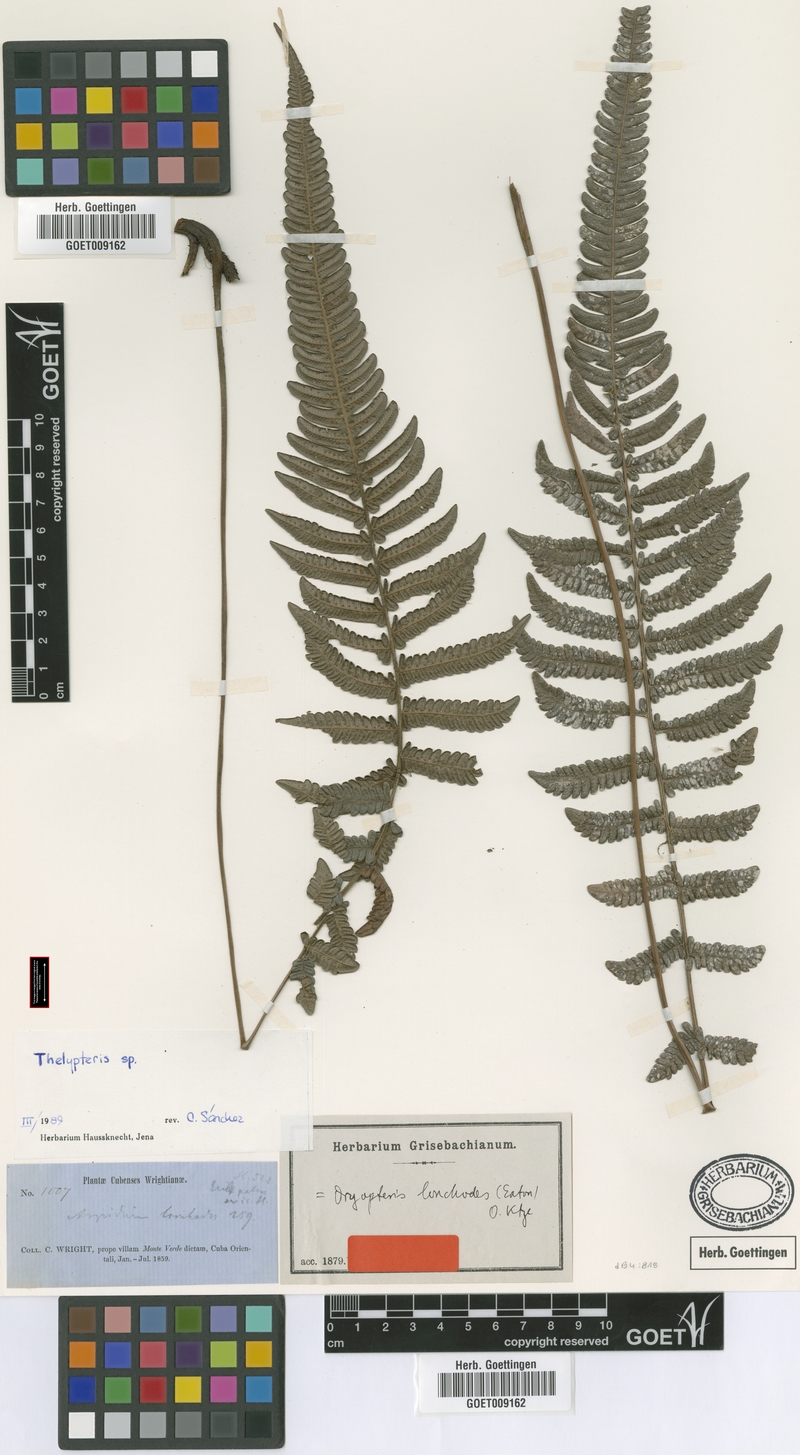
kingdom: Plantae
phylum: Tracheophyta
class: Polypodiopsida
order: Polypodiales
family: Thelypteridaceae
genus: Steiropteris
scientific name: Steiropteris lonchodes
